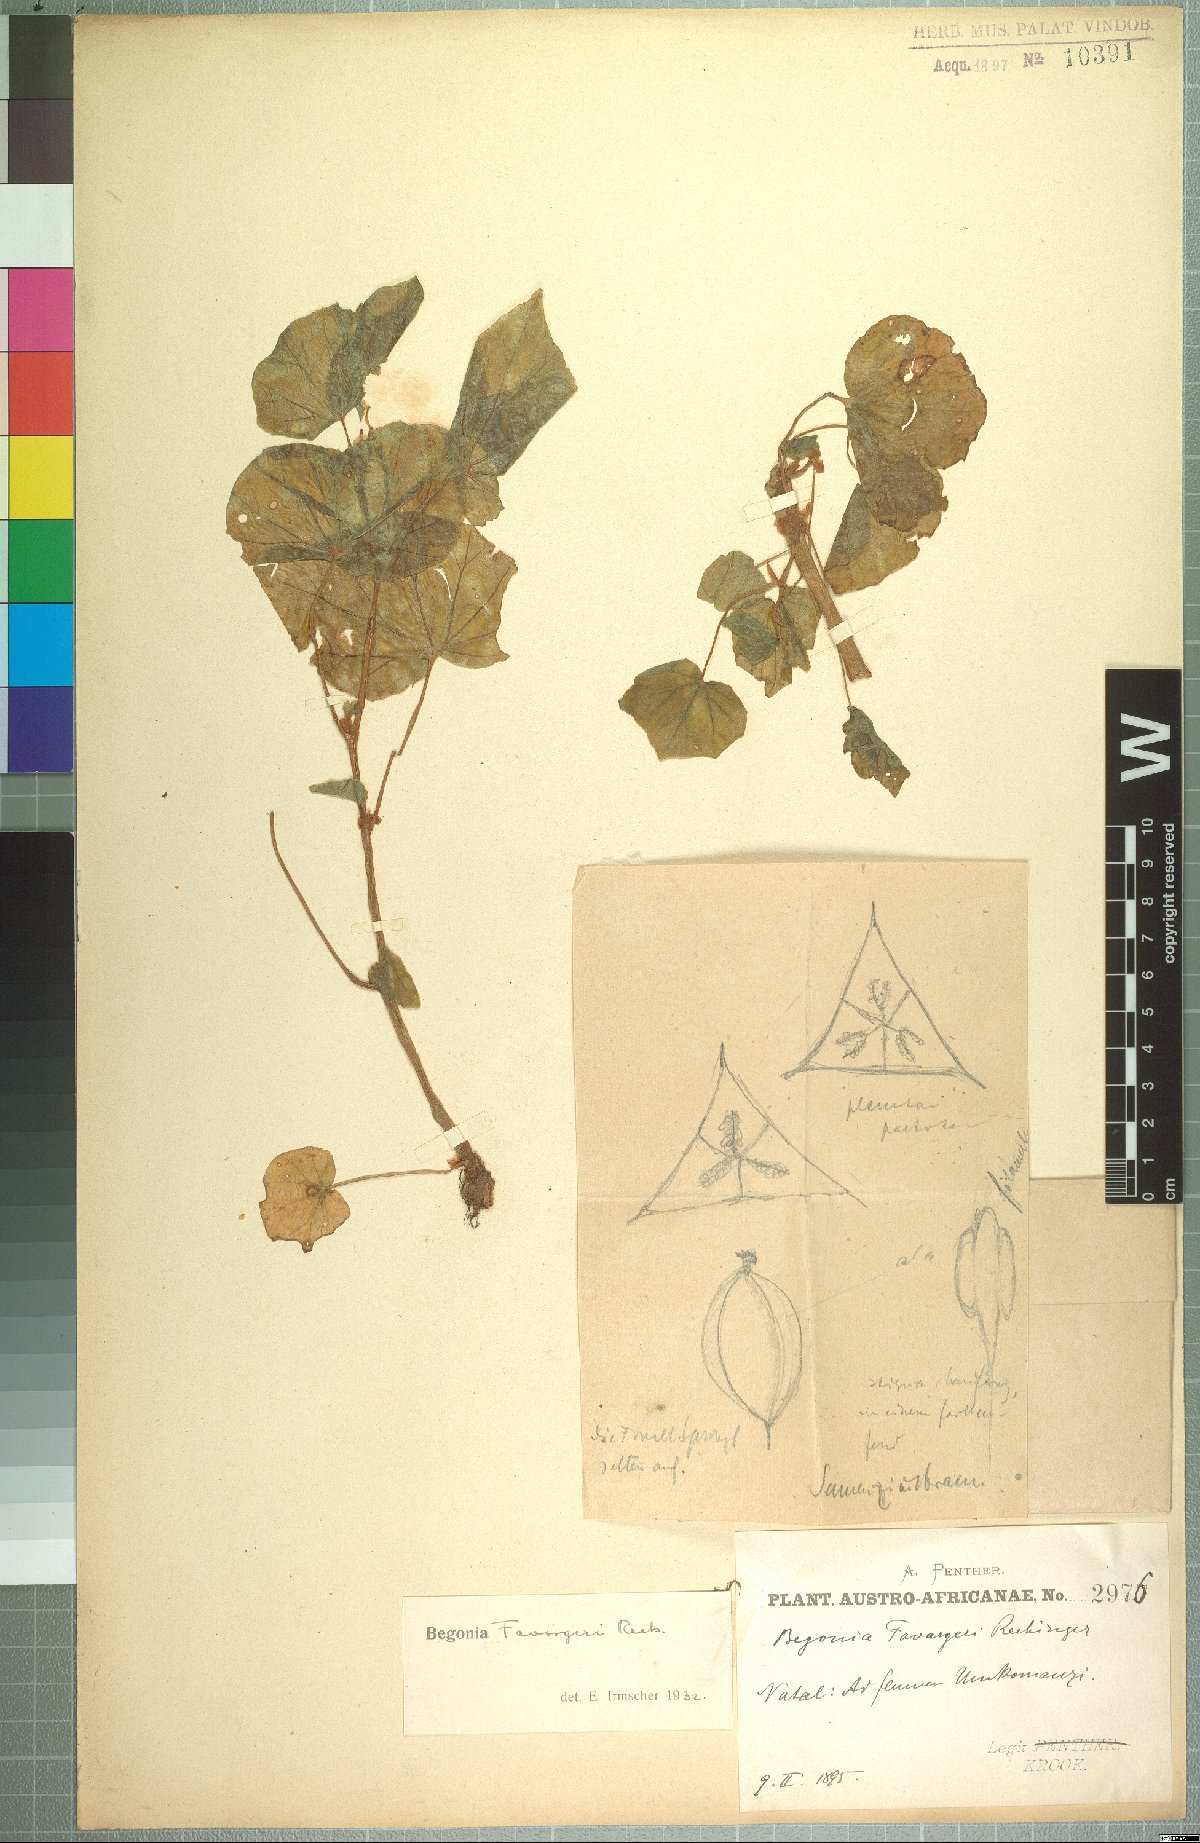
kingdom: Plantae
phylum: Tracheophyta
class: Magnoliopsida
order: Cucurbitales
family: Begoniaceae
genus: Begonia
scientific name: Begonia homonyma
